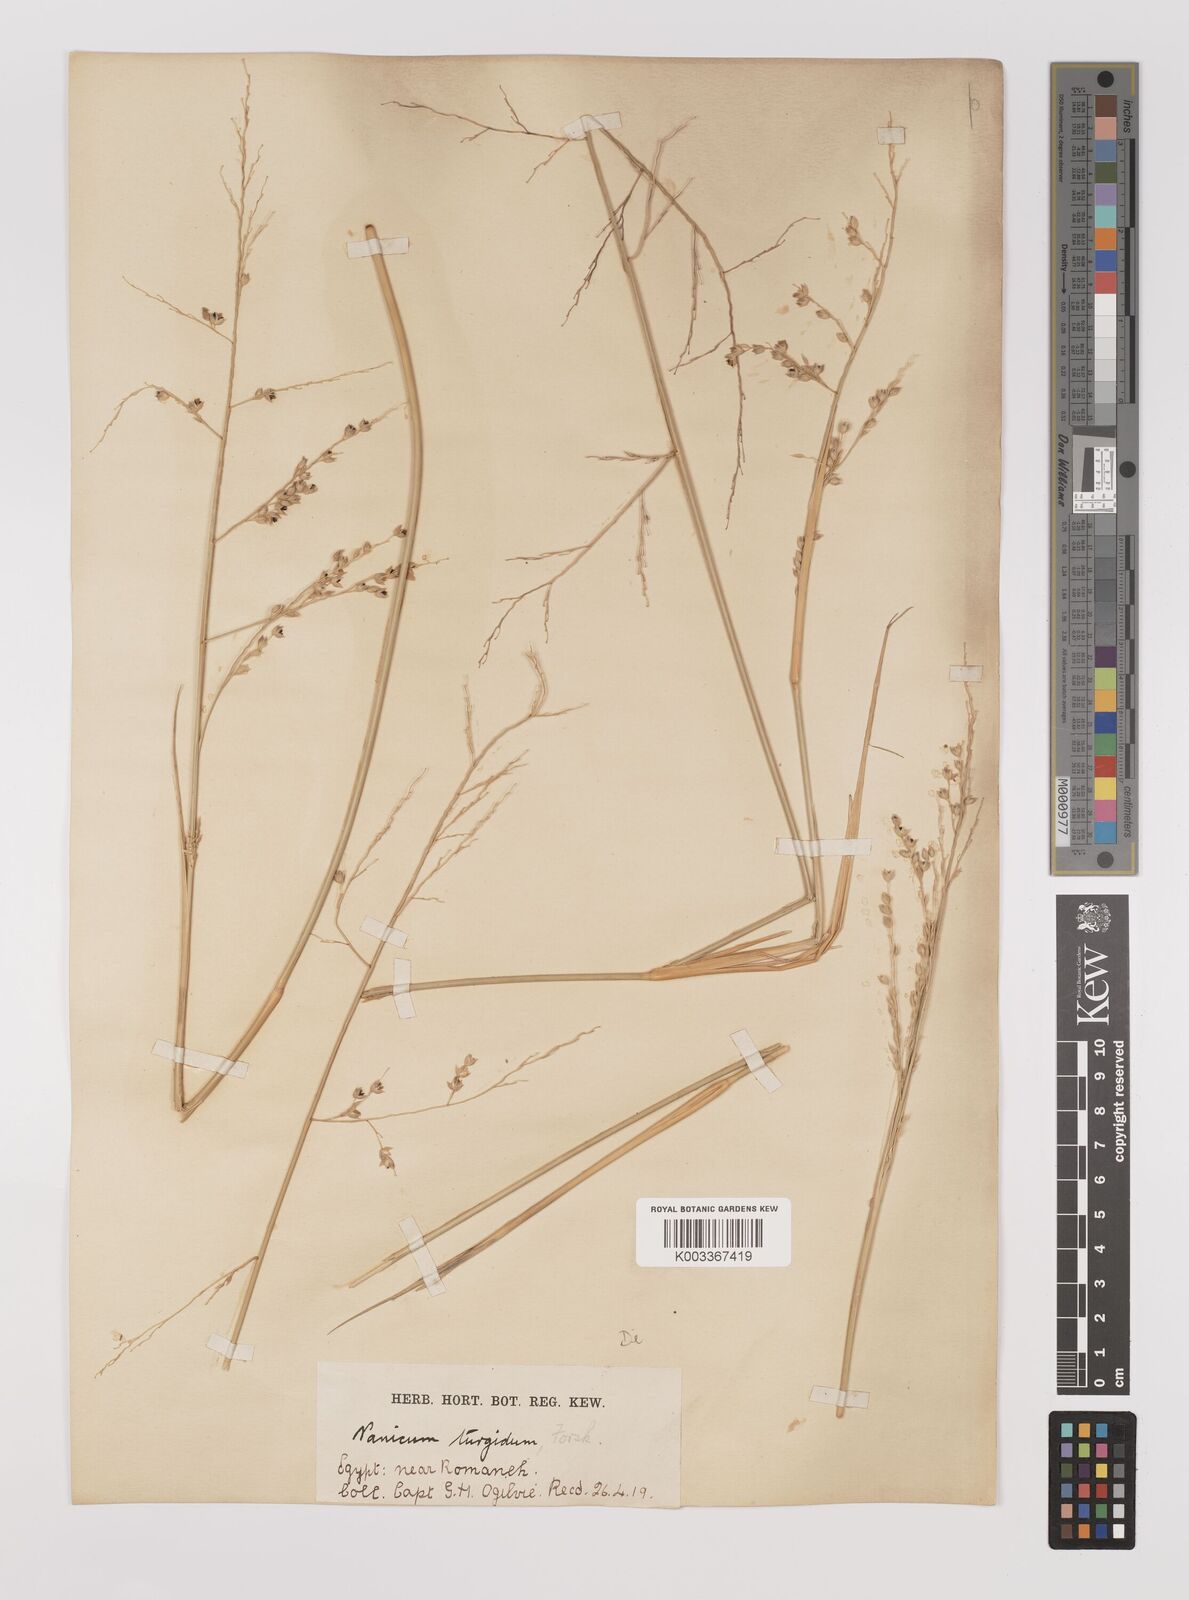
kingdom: Plantae
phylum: Tracheophyta
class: Liliopsida
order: Poales
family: Poaceae
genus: Panicum
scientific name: Panicum turgidum
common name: Desert grass
